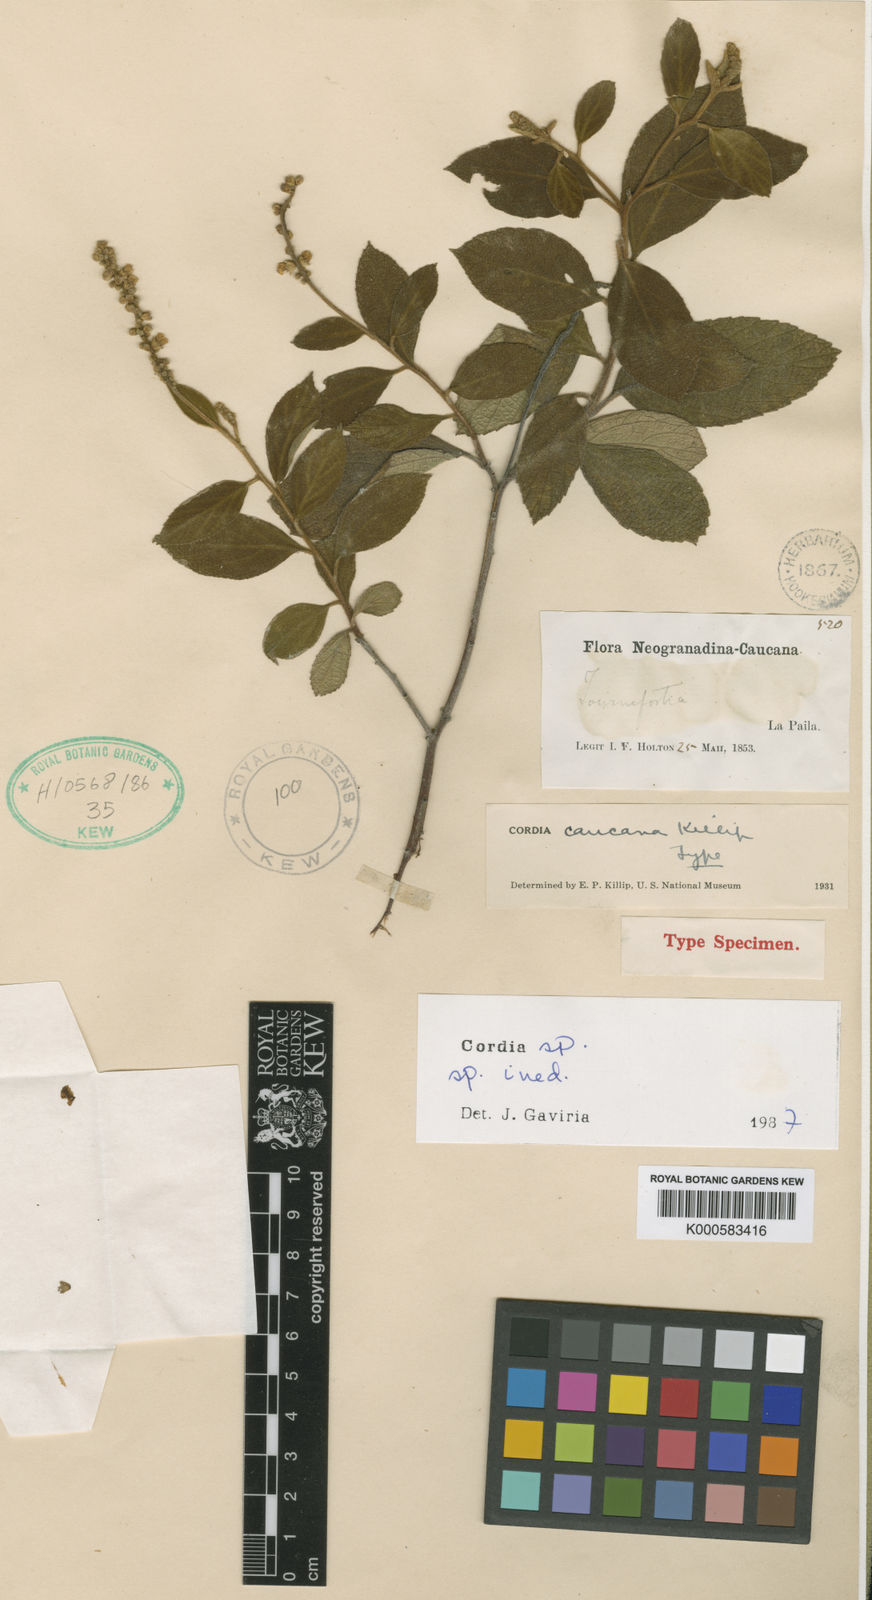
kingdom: Plantae
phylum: Tracheophyta
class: Magnoliopsida
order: Boraginales
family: Cordiaceae
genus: Cordia
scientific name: Cordia
